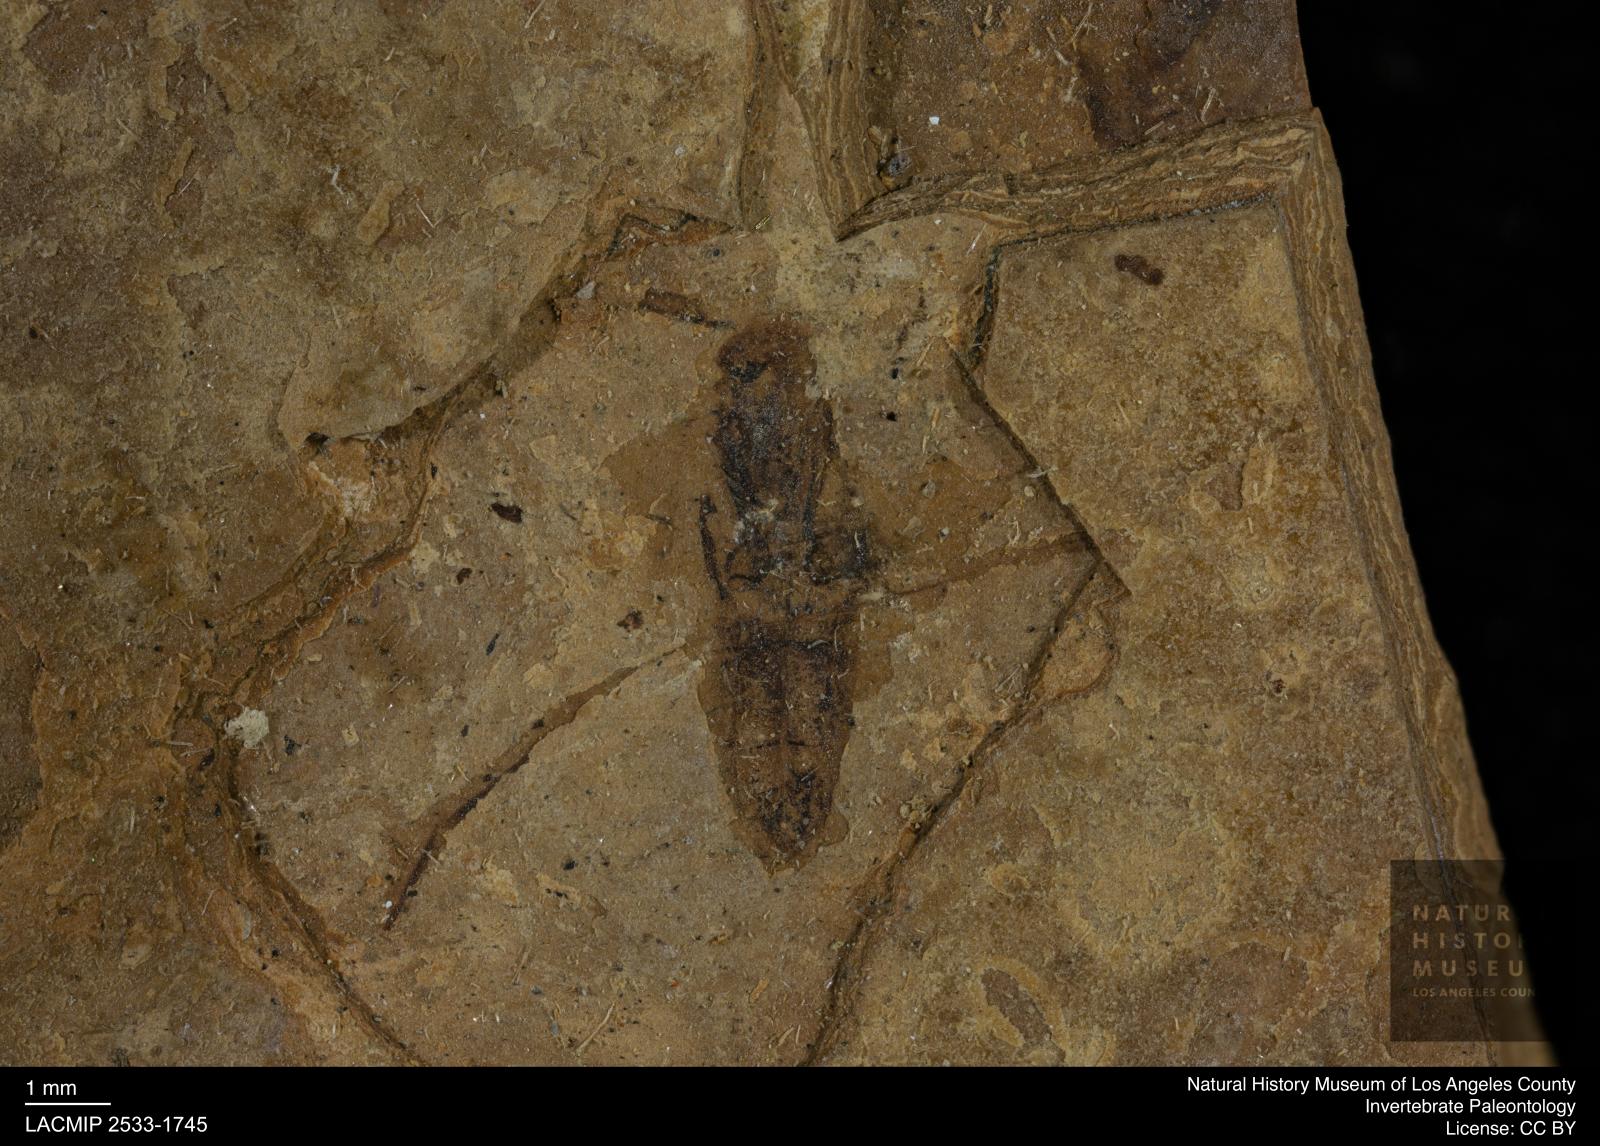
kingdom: Animalia
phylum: Arthropoda
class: Insecta
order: Hemiptera
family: Notonectidae
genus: Notonecta
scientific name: Notonecta
